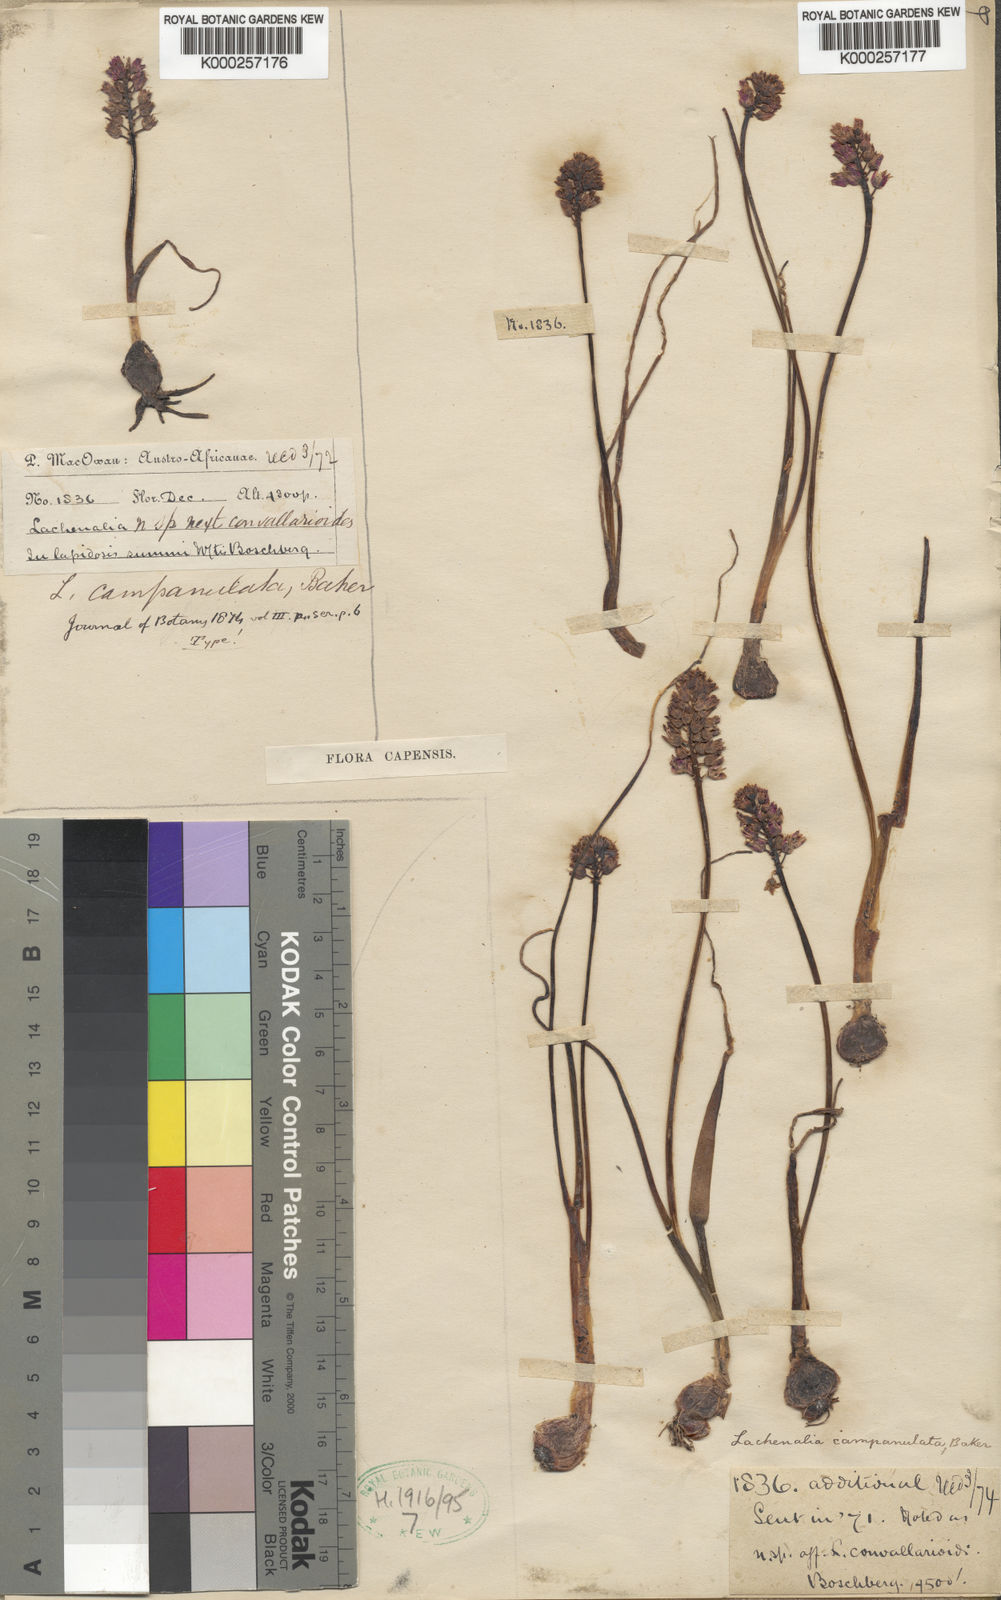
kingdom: Plantae
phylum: Tracheophyta
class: Liliopsida
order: Asparagales
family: Asparagaceae
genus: Lachenalia
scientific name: Lachenalia campanulata
